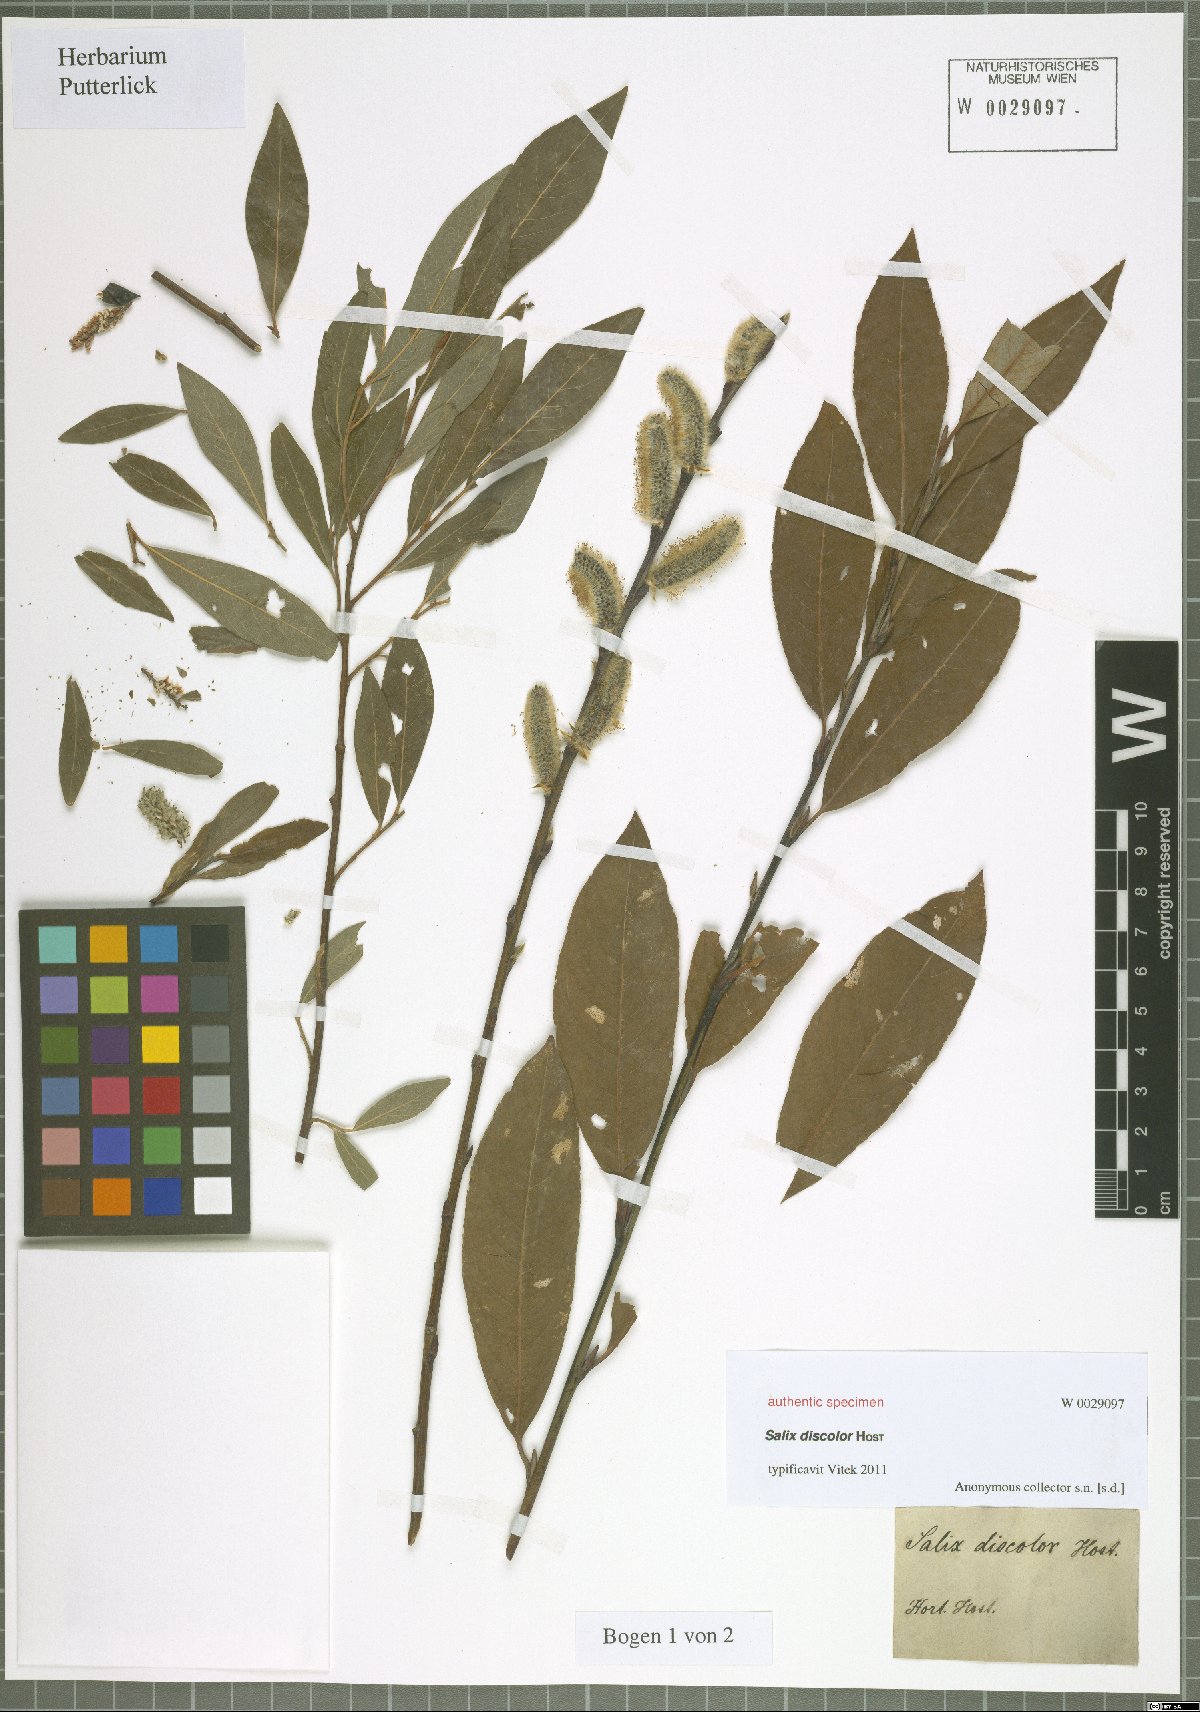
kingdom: Plantae
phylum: Tracheophyta
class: Magnoliopsida
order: Malpighiales
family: Salicaceae
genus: Salix
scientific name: Salix wimmeriana
